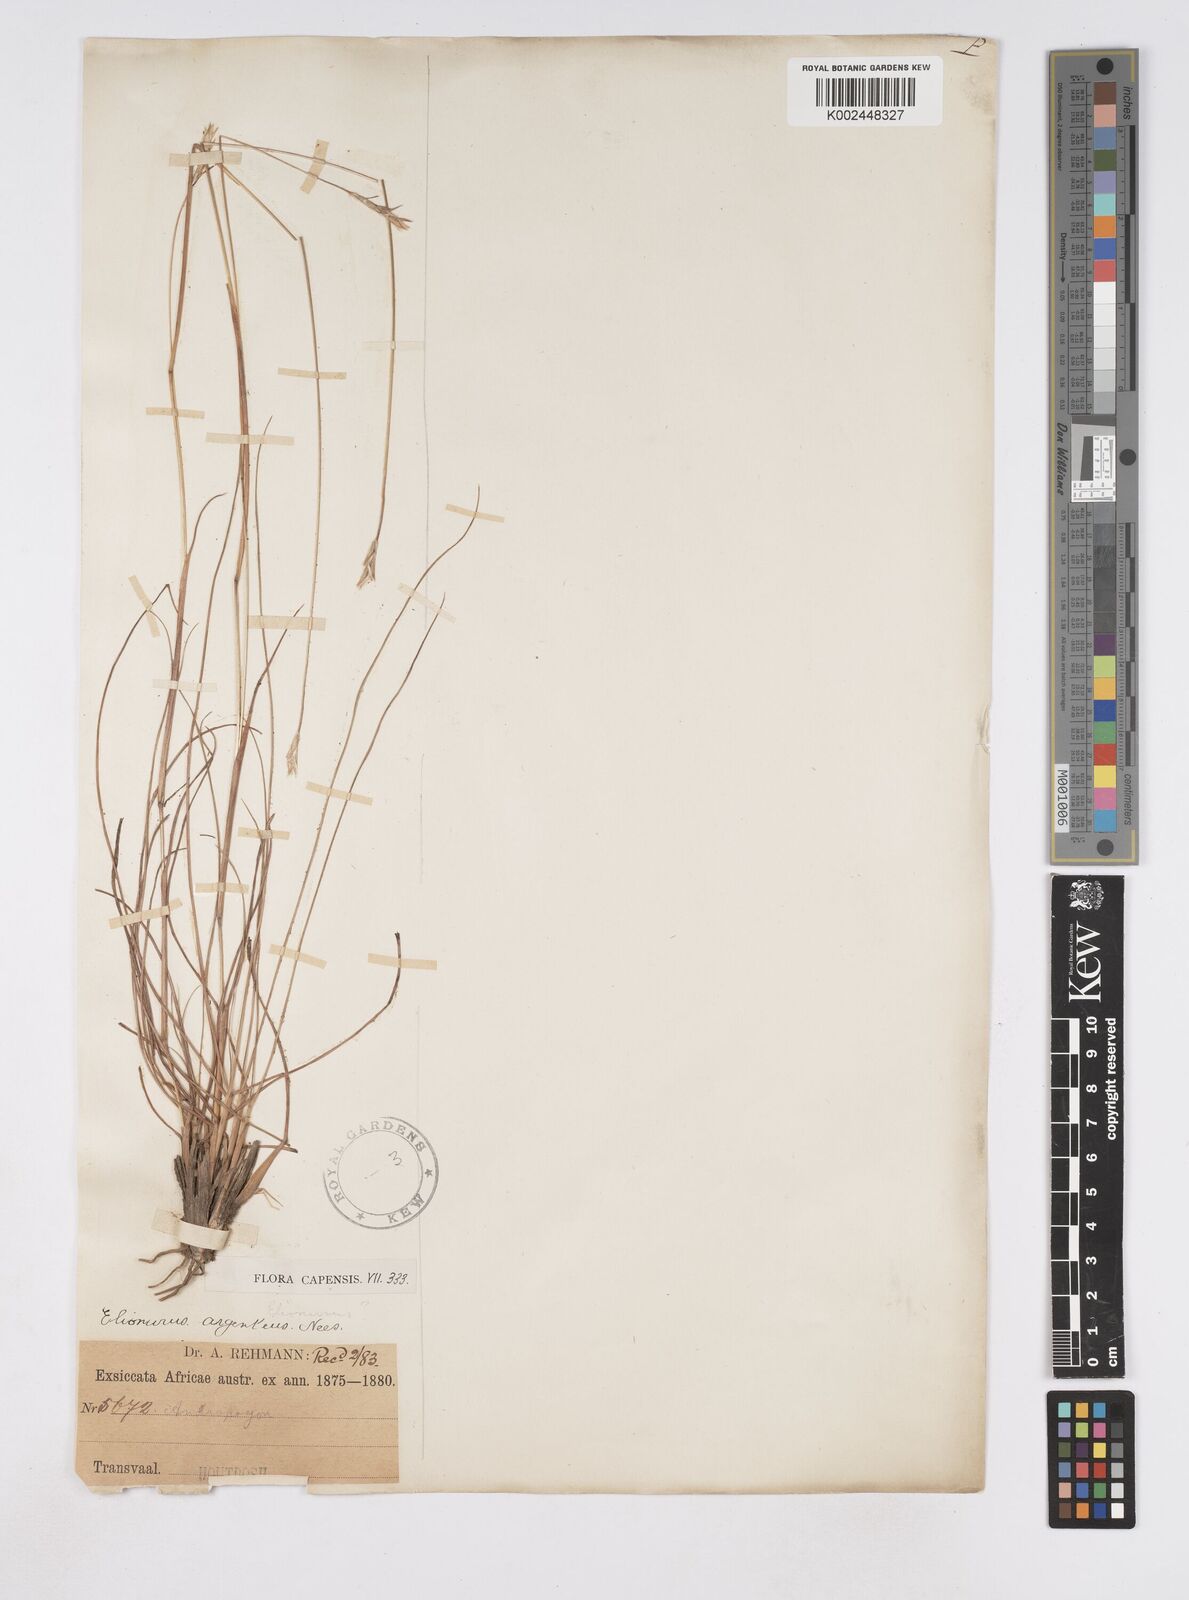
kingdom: Plantae
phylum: Tracheophyta
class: Liliopsida
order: Poales
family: Poaceae
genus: Elionurus
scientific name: Elionurus muticus
